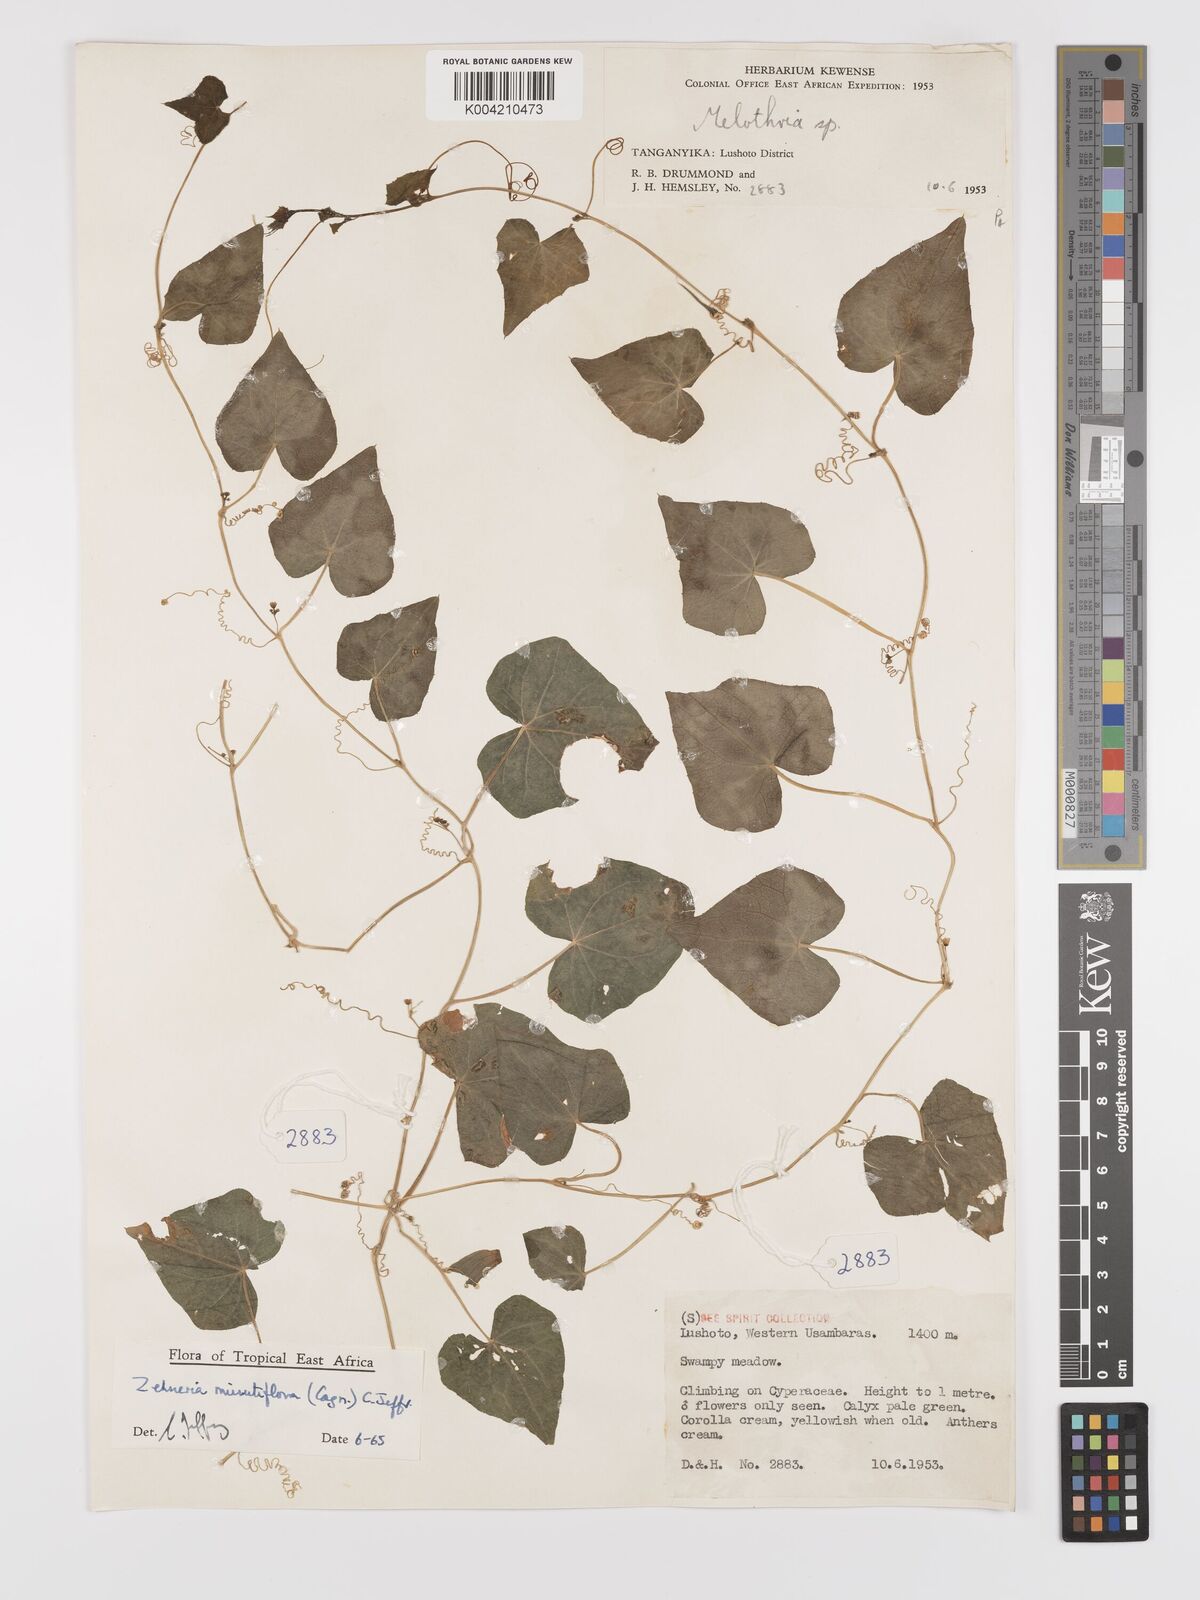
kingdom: Plantae
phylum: Tracheophyta
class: Magnoliopsida
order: Cucurbitales
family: Cucurbitaceae
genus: Zehneria
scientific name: Zehneria minutiflora
